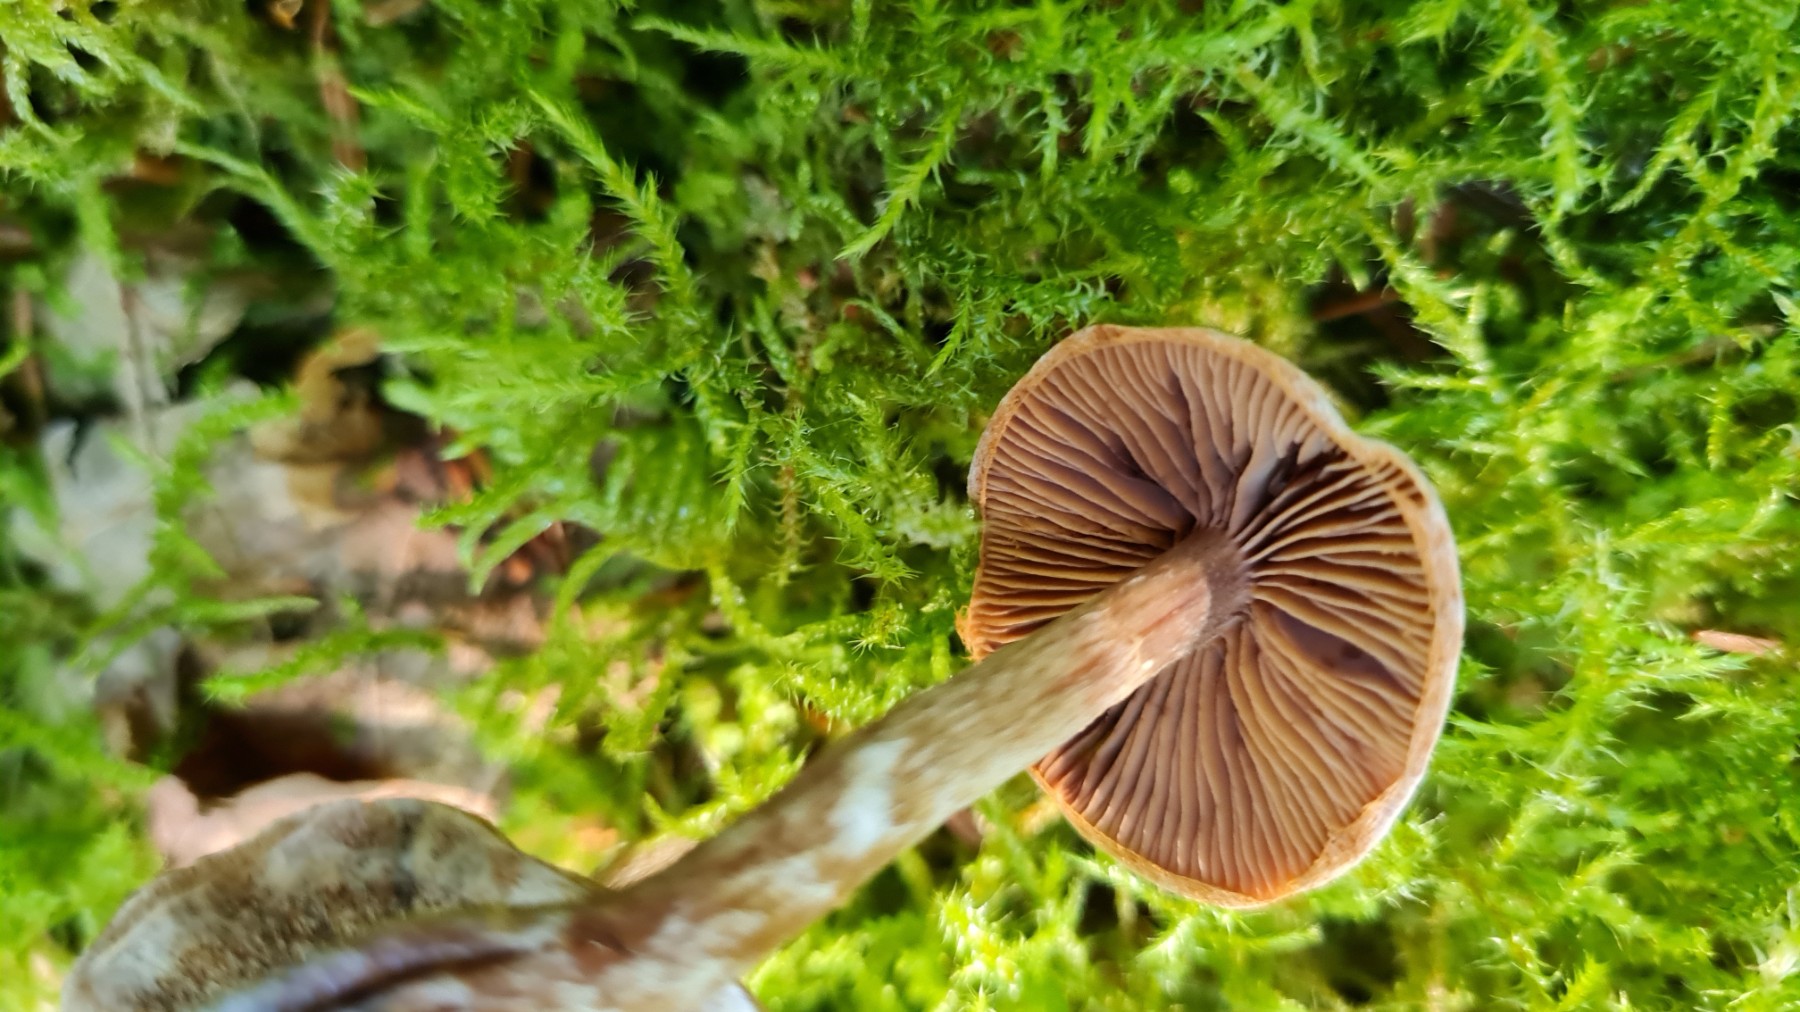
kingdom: Fungi
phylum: Basidiomycota
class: Agaricomycetes
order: Agaricales
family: Cortinariaceae
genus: Cortinarius
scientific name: Cortinarius
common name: pelargonie-slørhat
